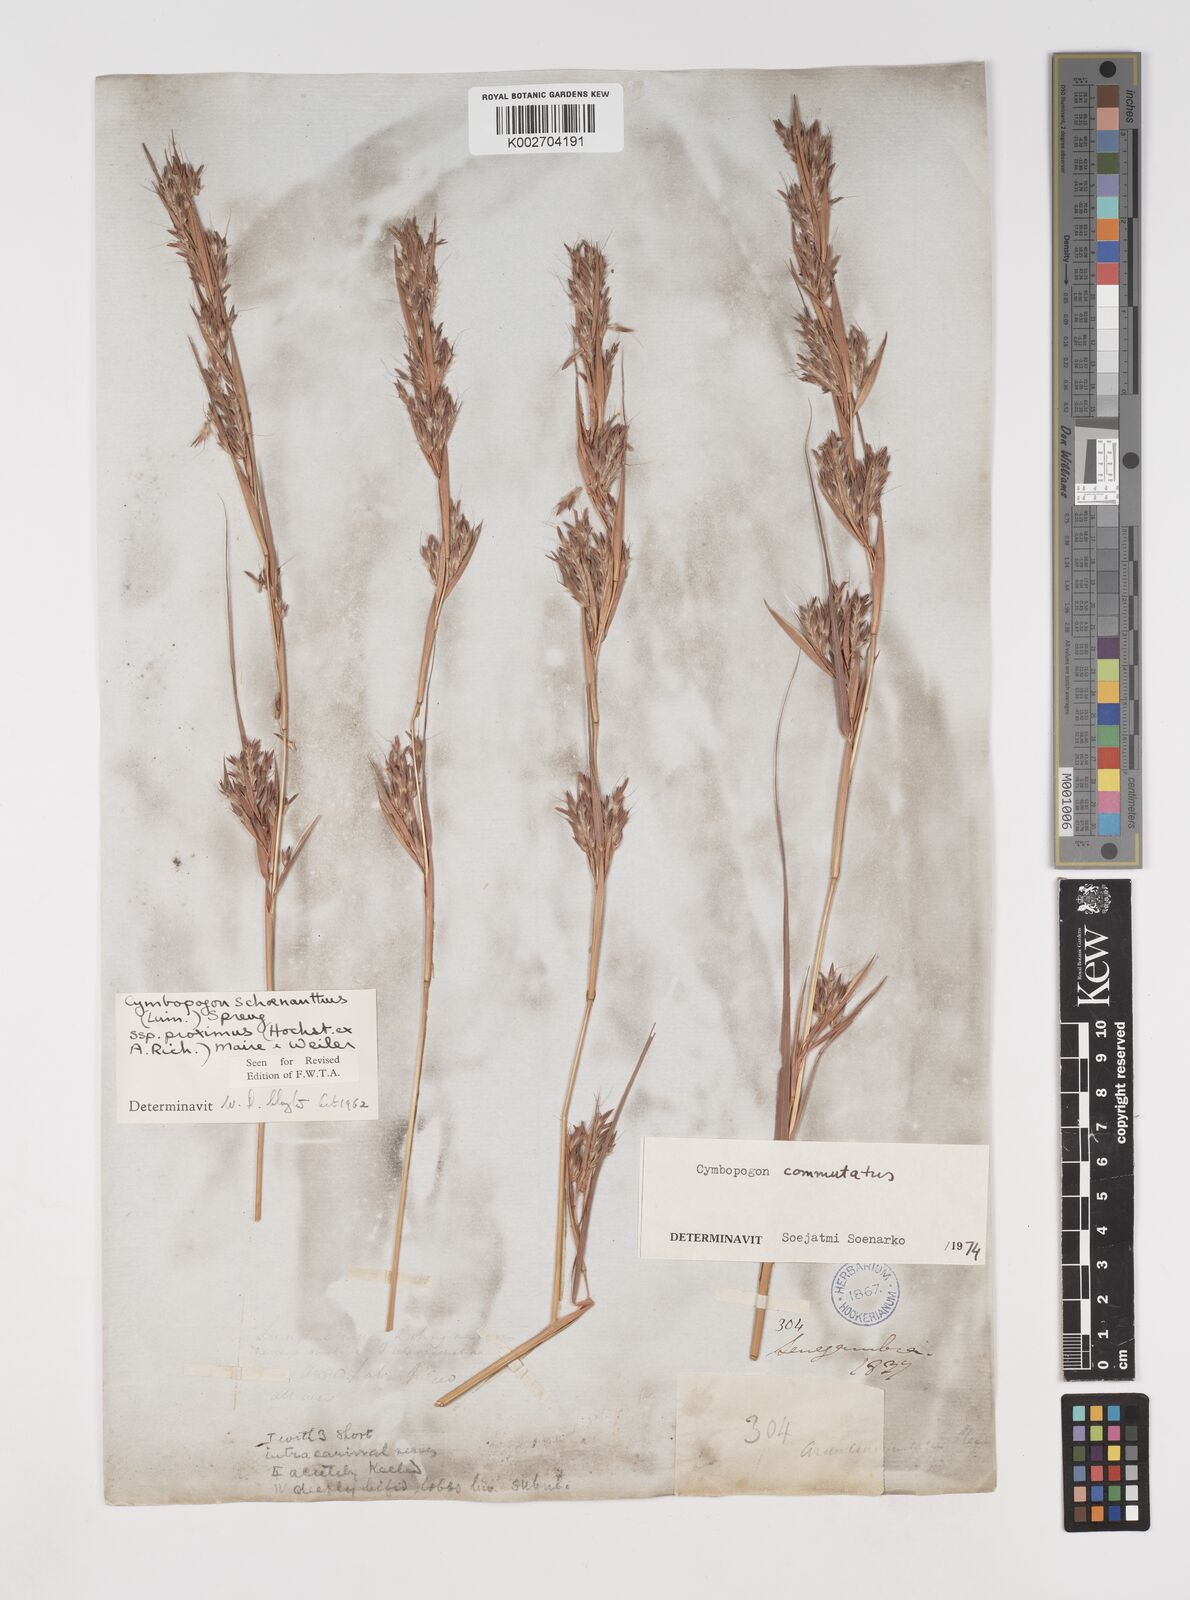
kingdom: Plantae
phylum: Tracheophyta
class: Liliopsida
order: Poales
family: Poaceae
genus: Cymbopogon
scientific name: Cymbopogon schoenanthus
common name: Geranium grass
